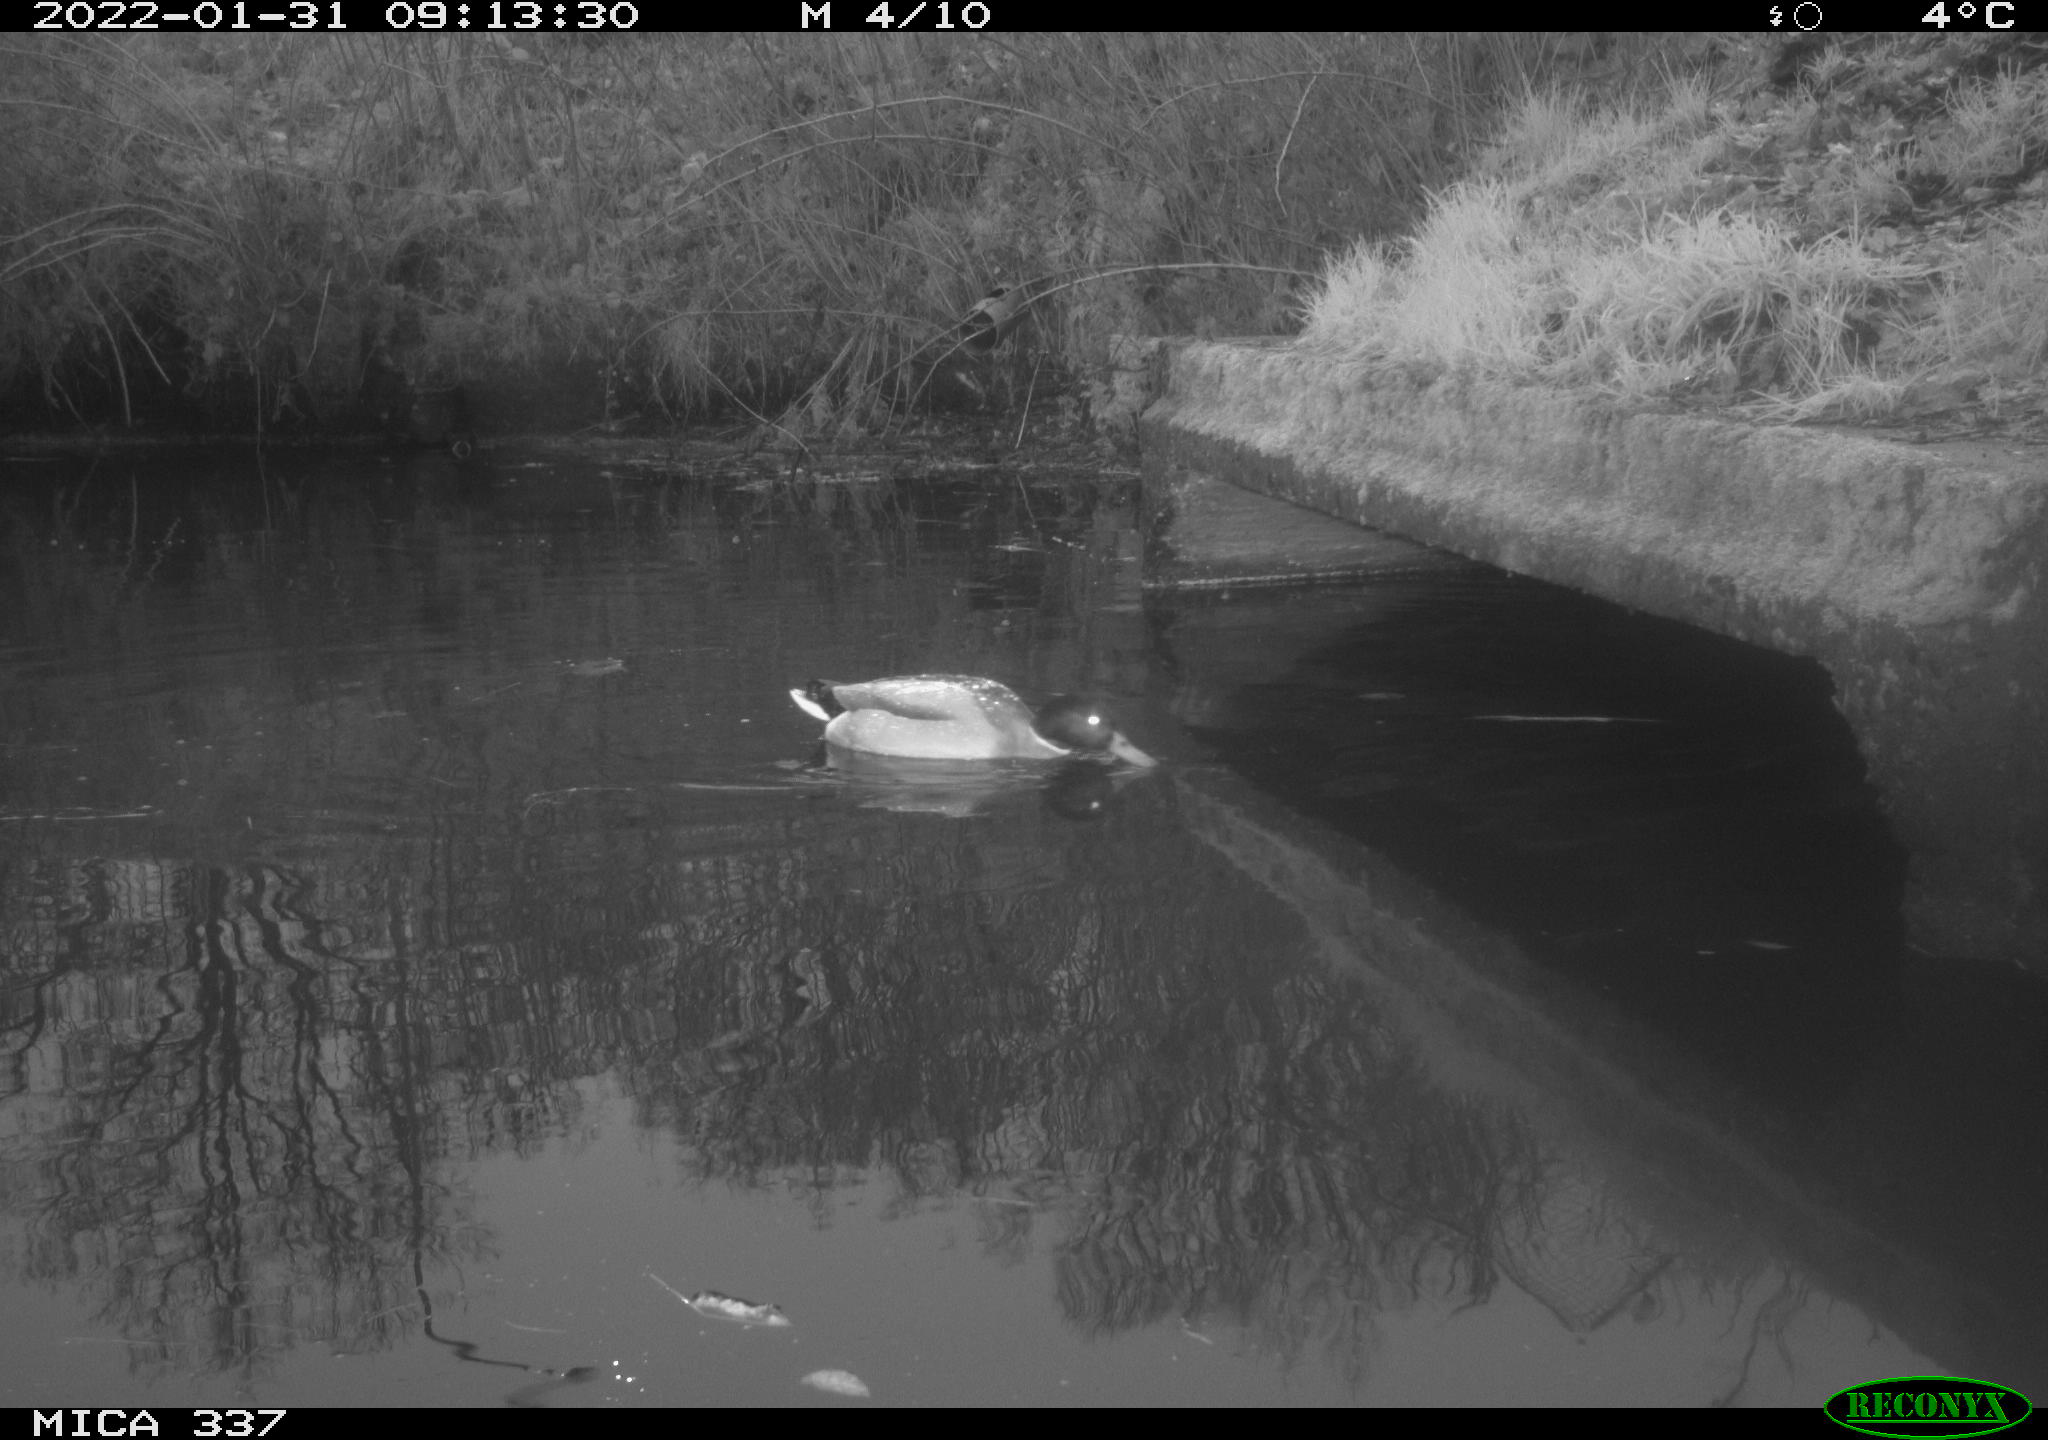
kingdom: Animalia
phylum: Chordata
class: Aves
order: Anseriformes
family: Anatidae
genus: Anas
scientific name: Anas platyrhynchos
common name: Mallard
